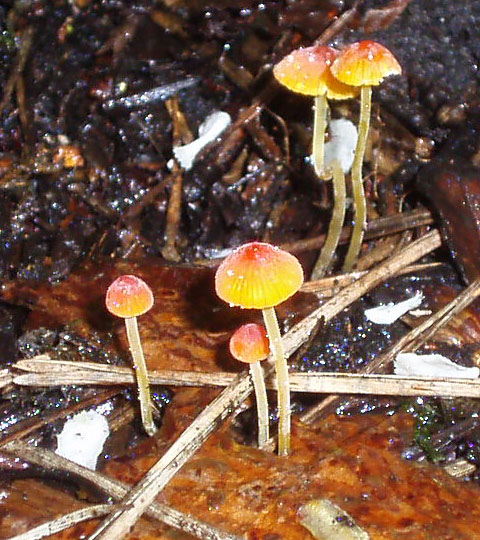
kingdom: Fungi
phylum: Basidiomycota
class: Agaricomycetes
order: Agaricales
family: Mycenaceae
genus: Mycena
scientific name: Mycena acicula
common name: orange huesvamp
